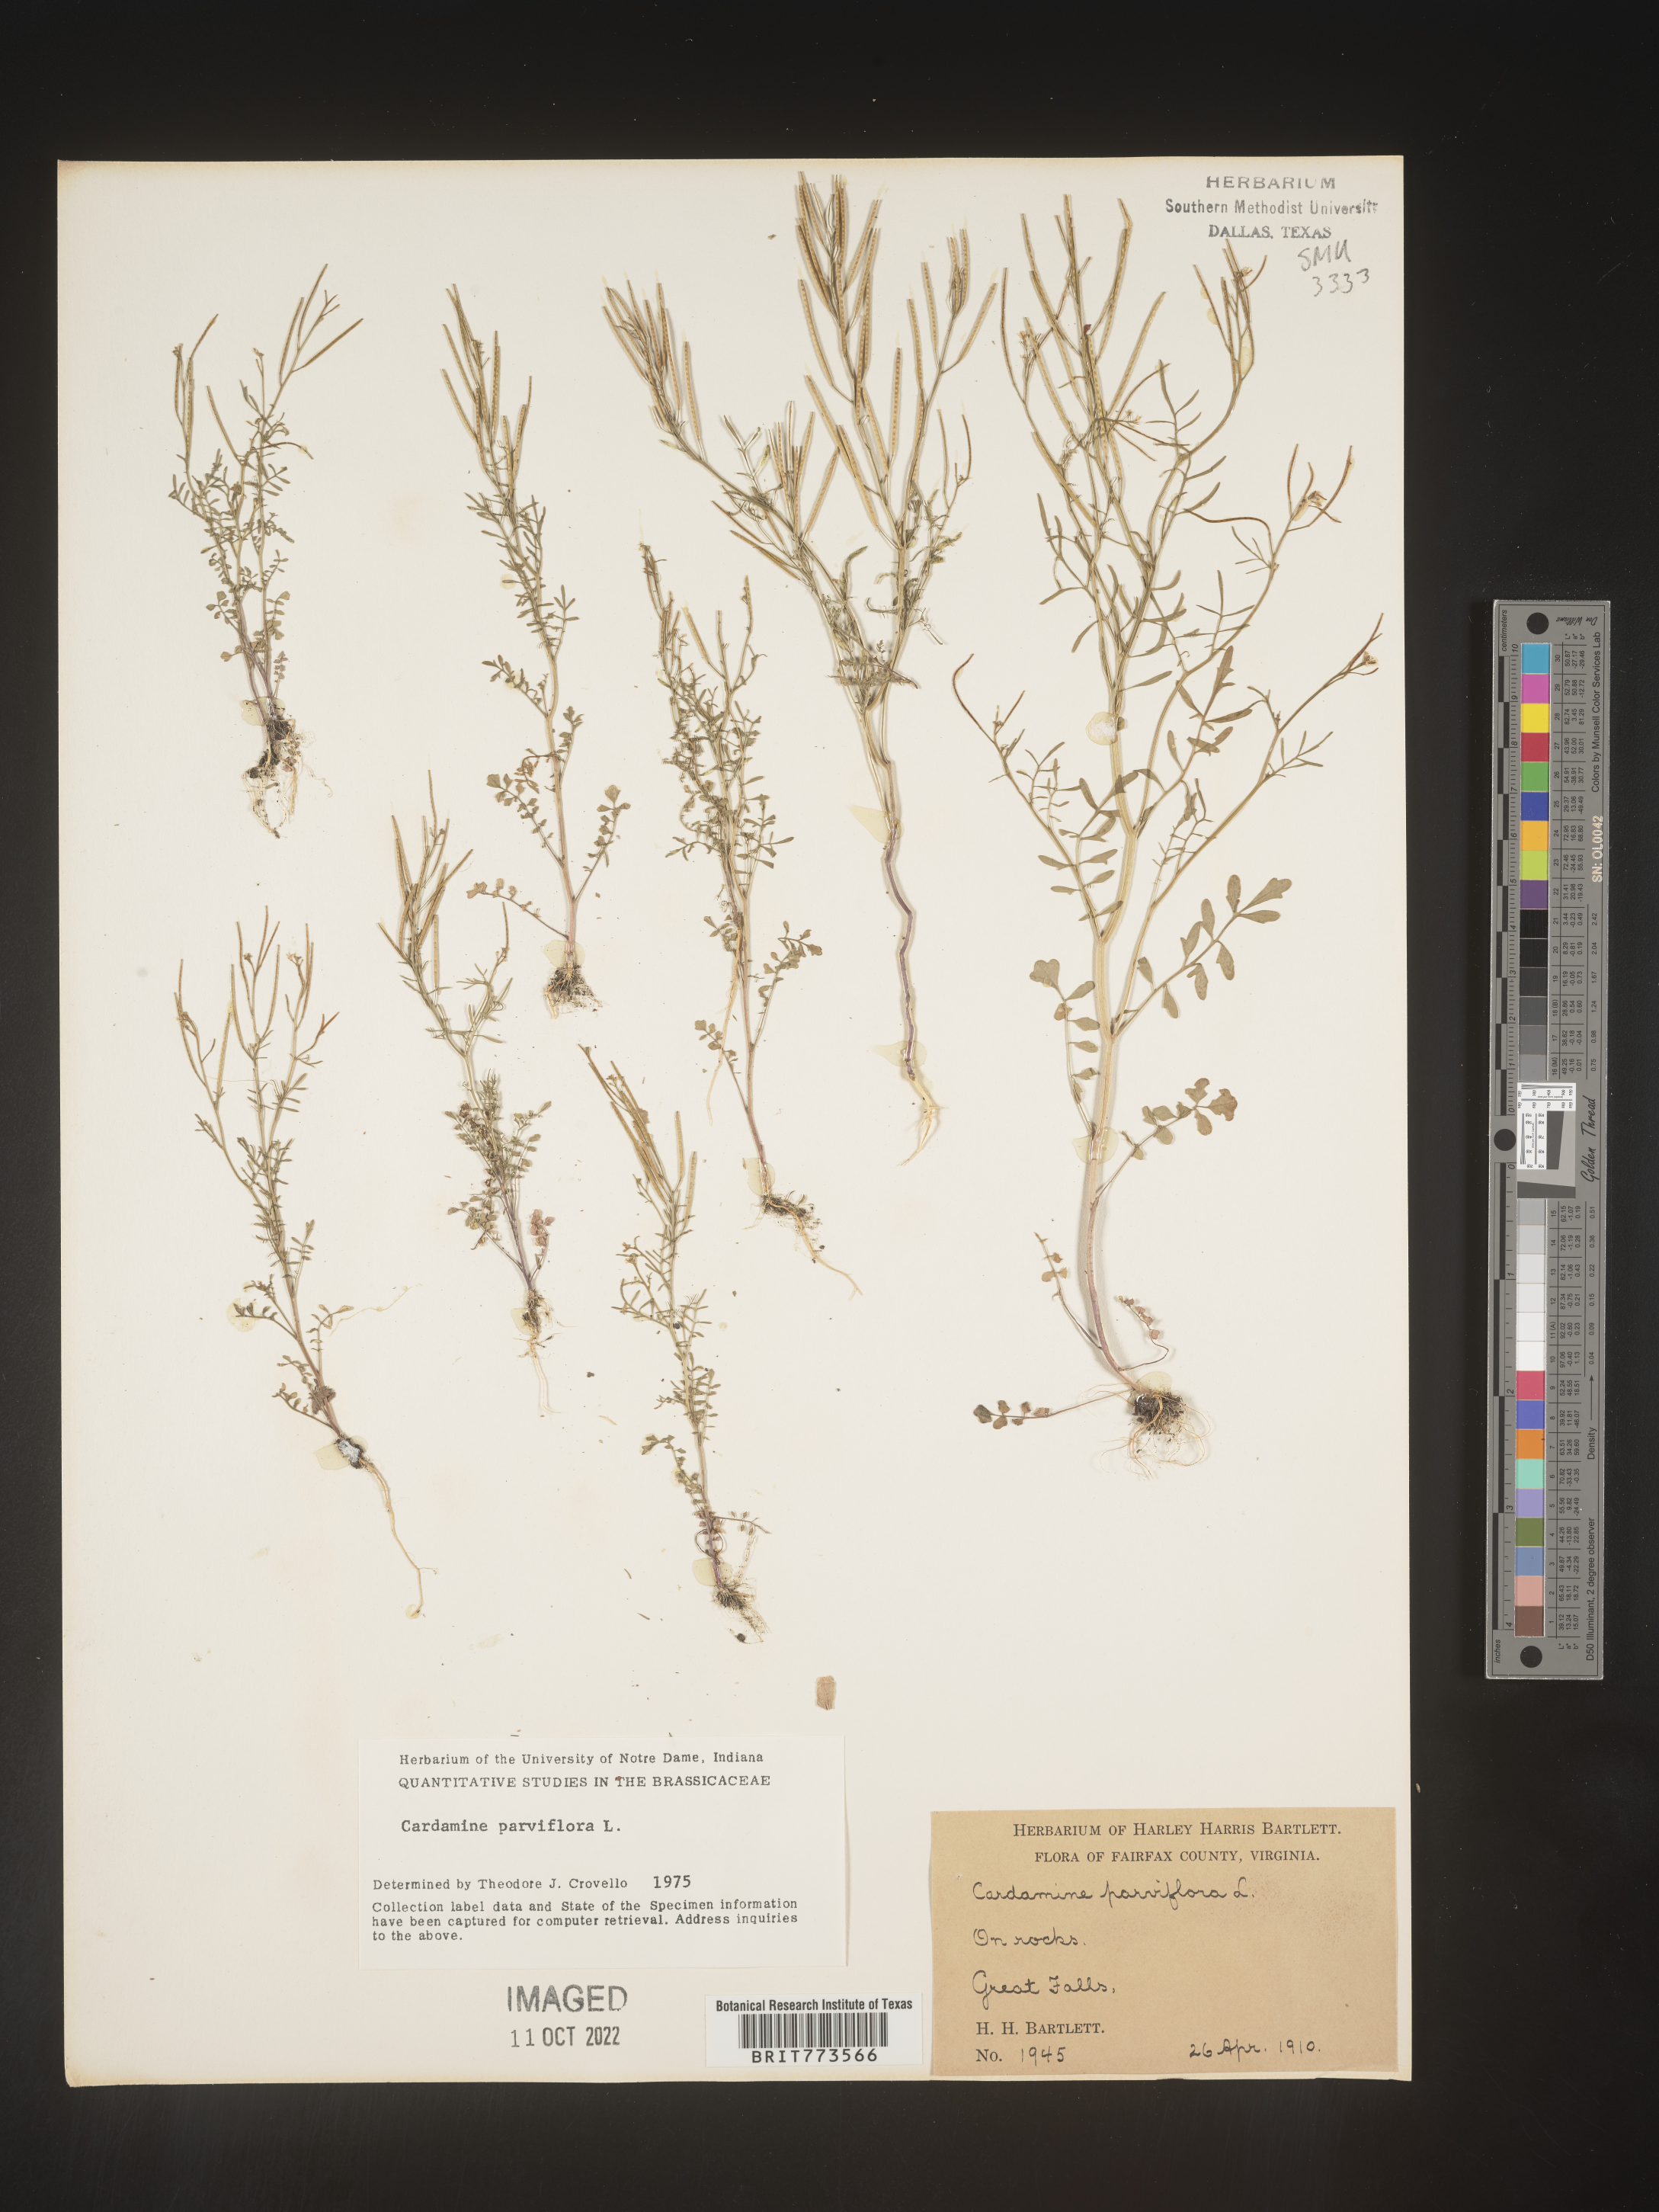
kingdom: Plantae
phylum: Tracheophyta
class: Magnoliopsida
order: Brassicales
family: Brassicaceae
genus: Cardamine
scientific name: Cardamine parviflora
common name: Sand bittercress
